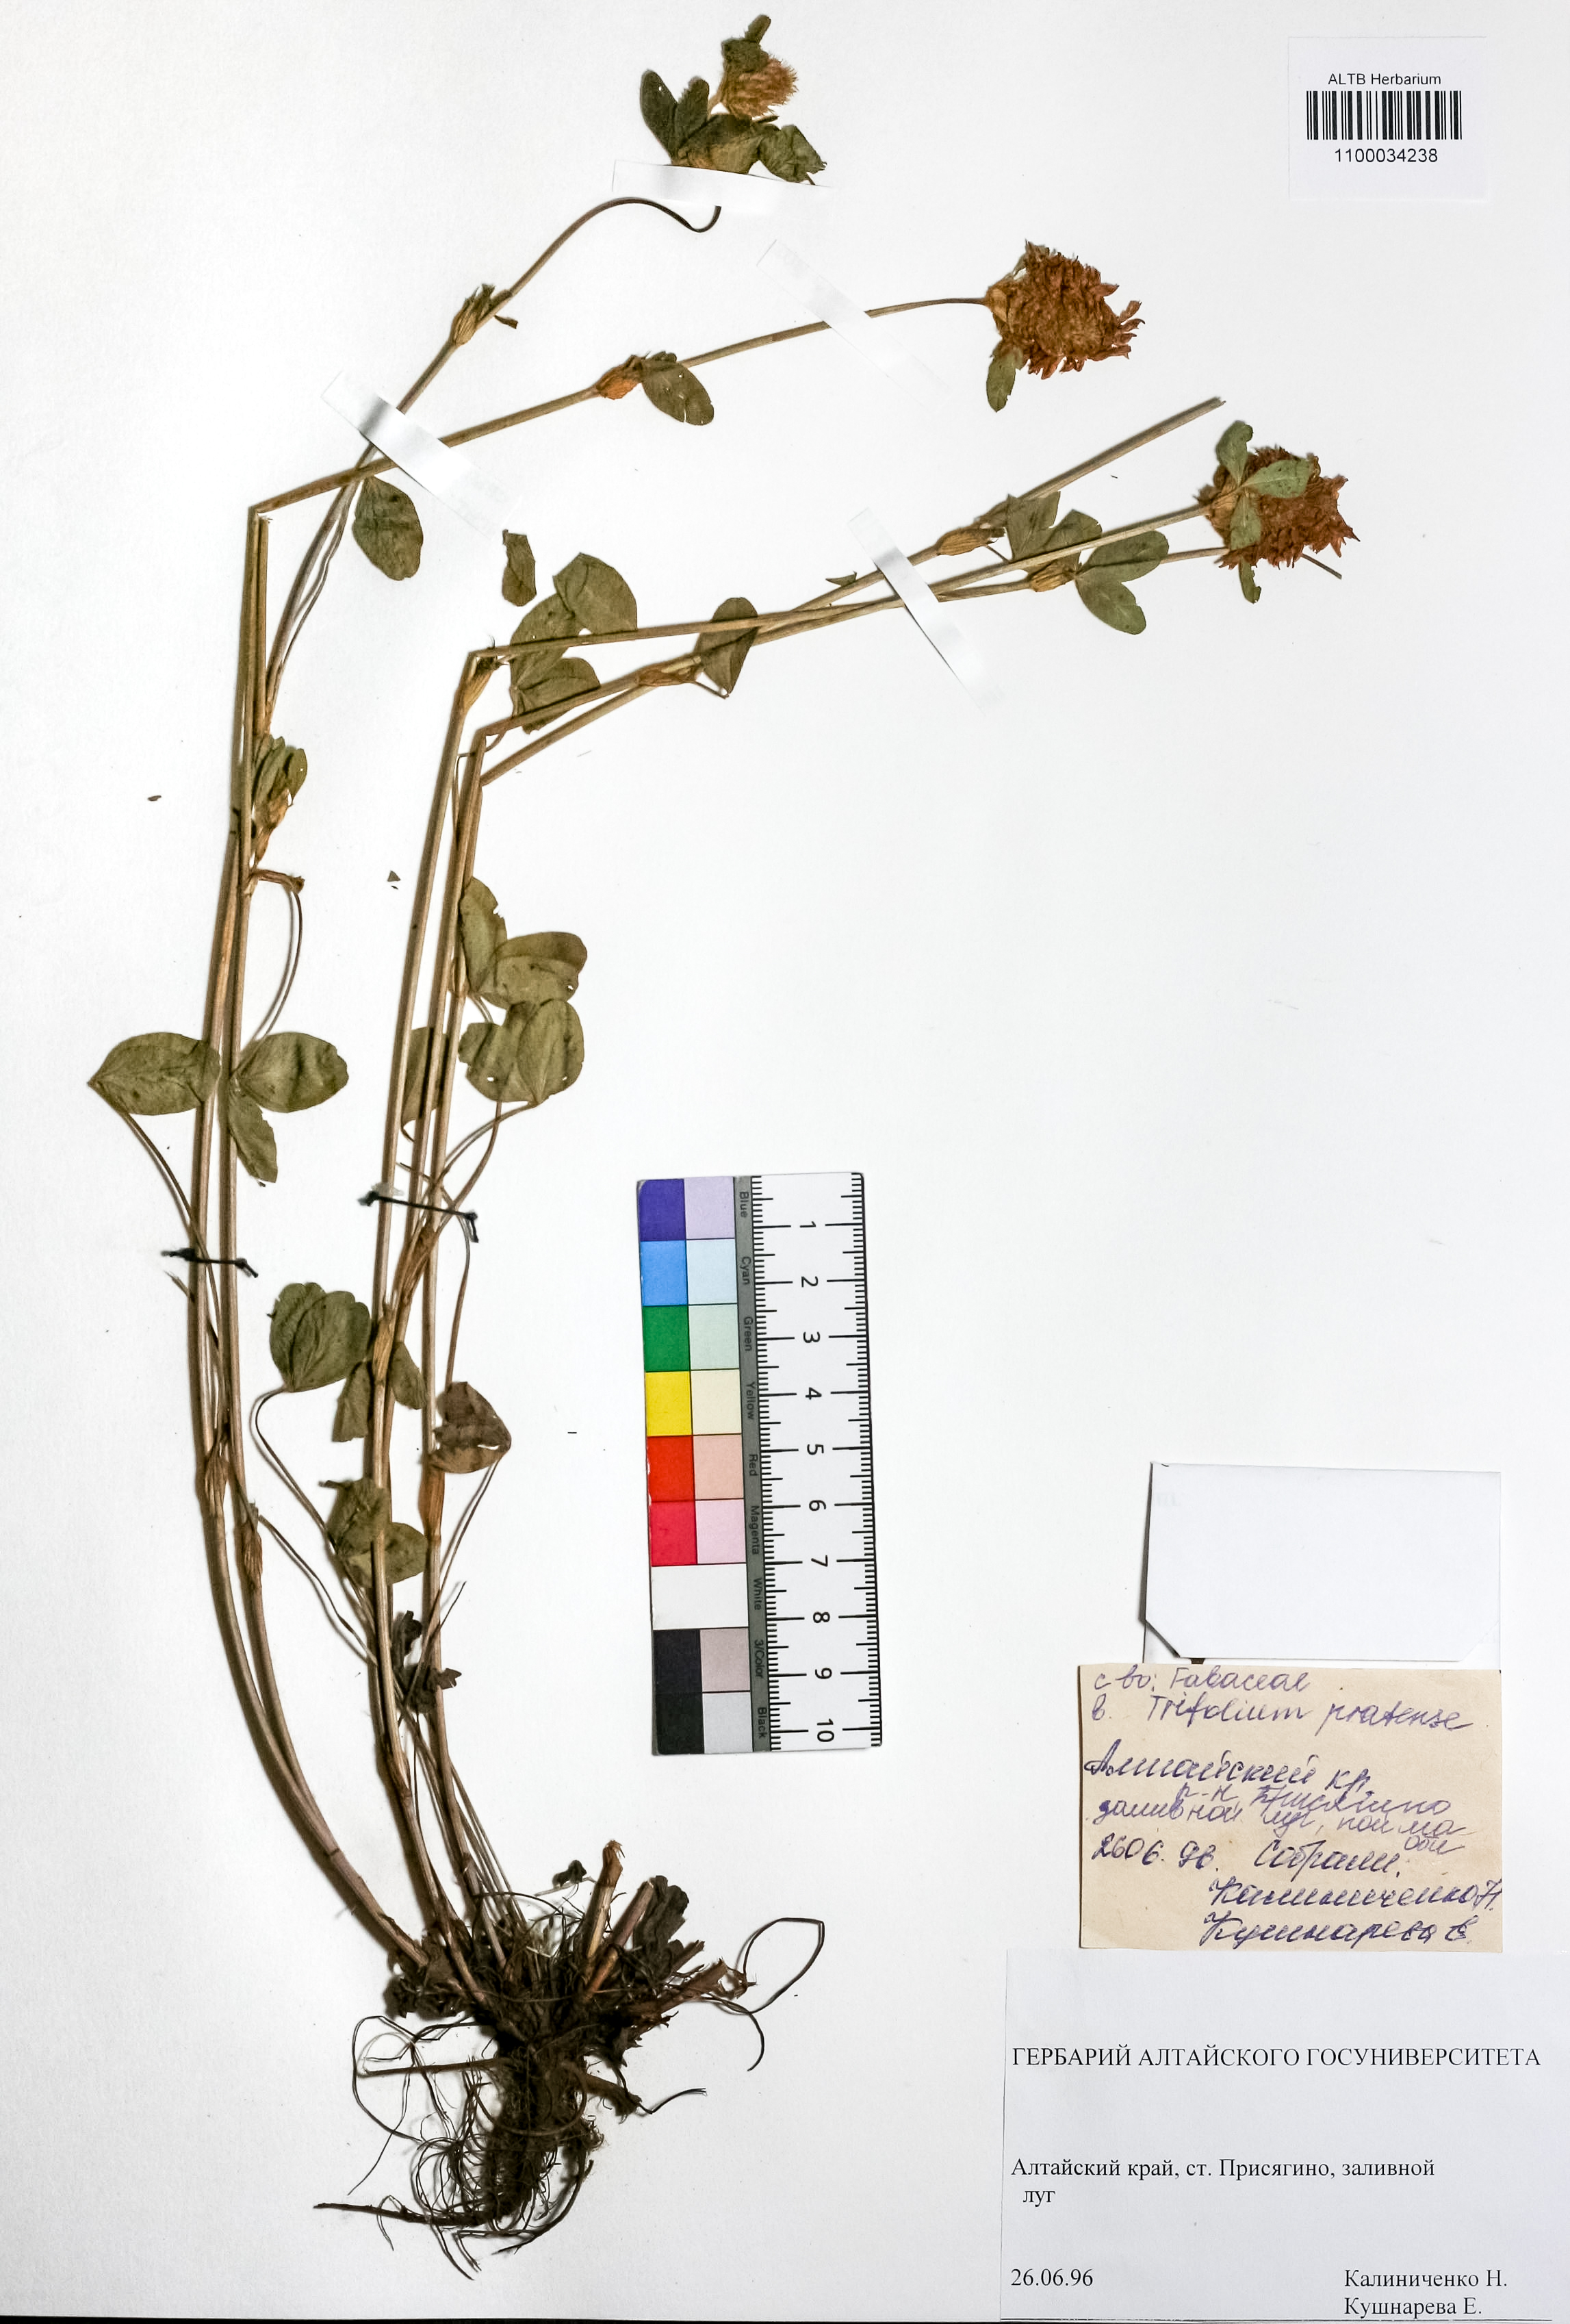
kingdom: Plantae
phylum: Tracheophyta
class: Magnoliopsida
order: Fabales
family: Fabaceae
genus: Trifolium
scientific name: Trifolium pratense
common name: Red clover
